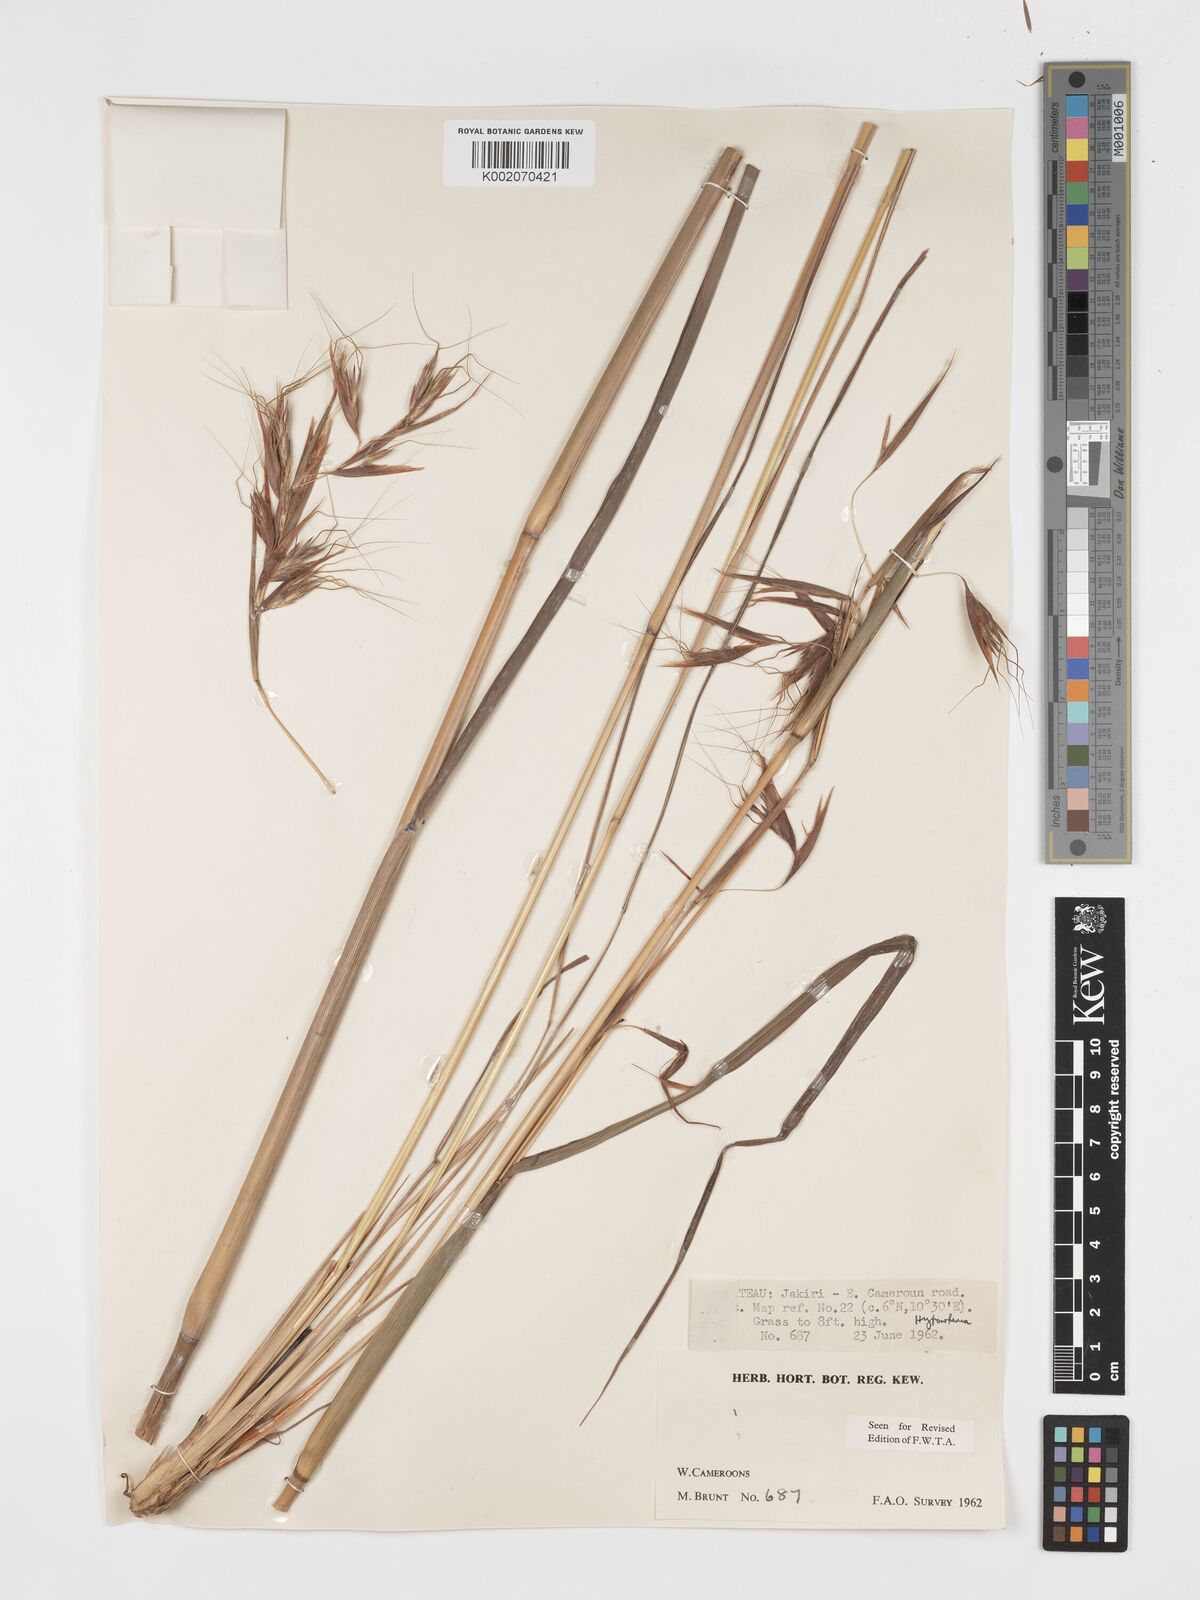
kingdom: Plantae
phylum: Tracheophyta
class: Liliopsida
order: Poales
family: Poaceae
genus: Hyparrhenia
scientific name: Hyparrhenia diplandra
